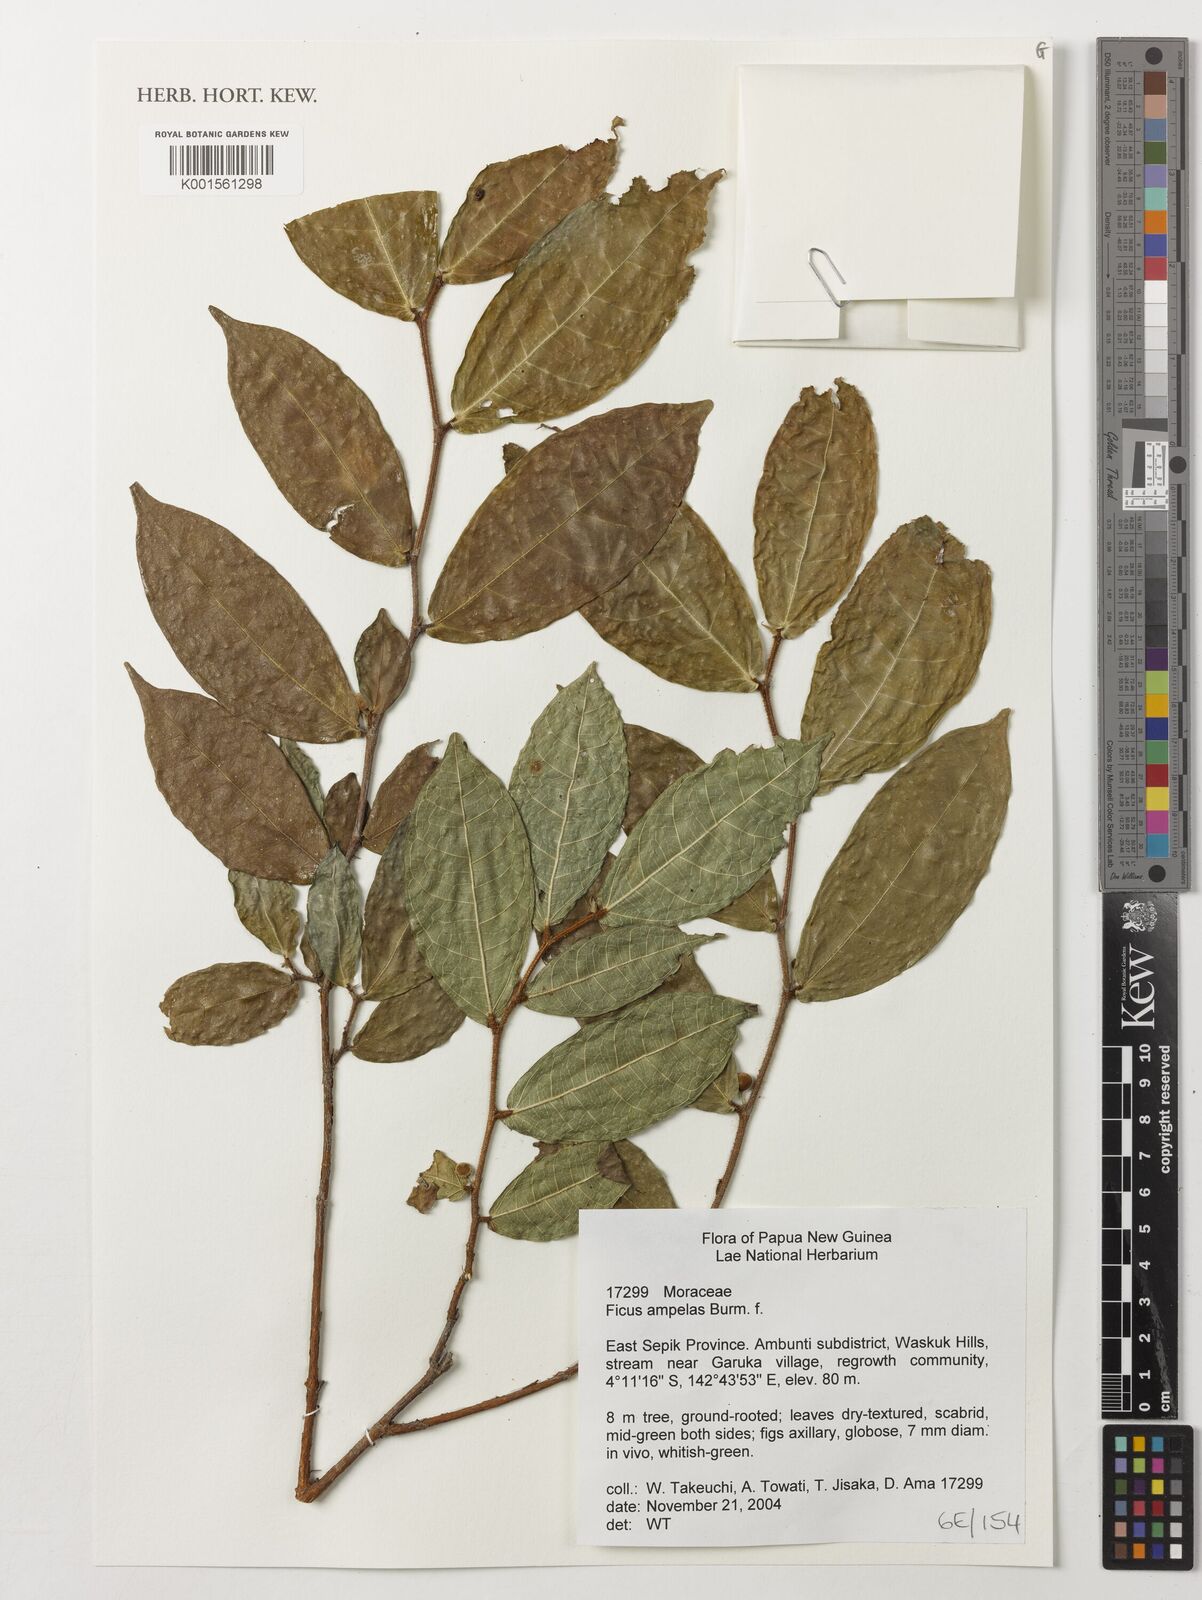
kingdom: Plantae
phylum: Tracheophyta
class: Magnoliopsida
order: Rosales
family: Moraceae
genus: Ficus
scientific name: Ficus ampelos
